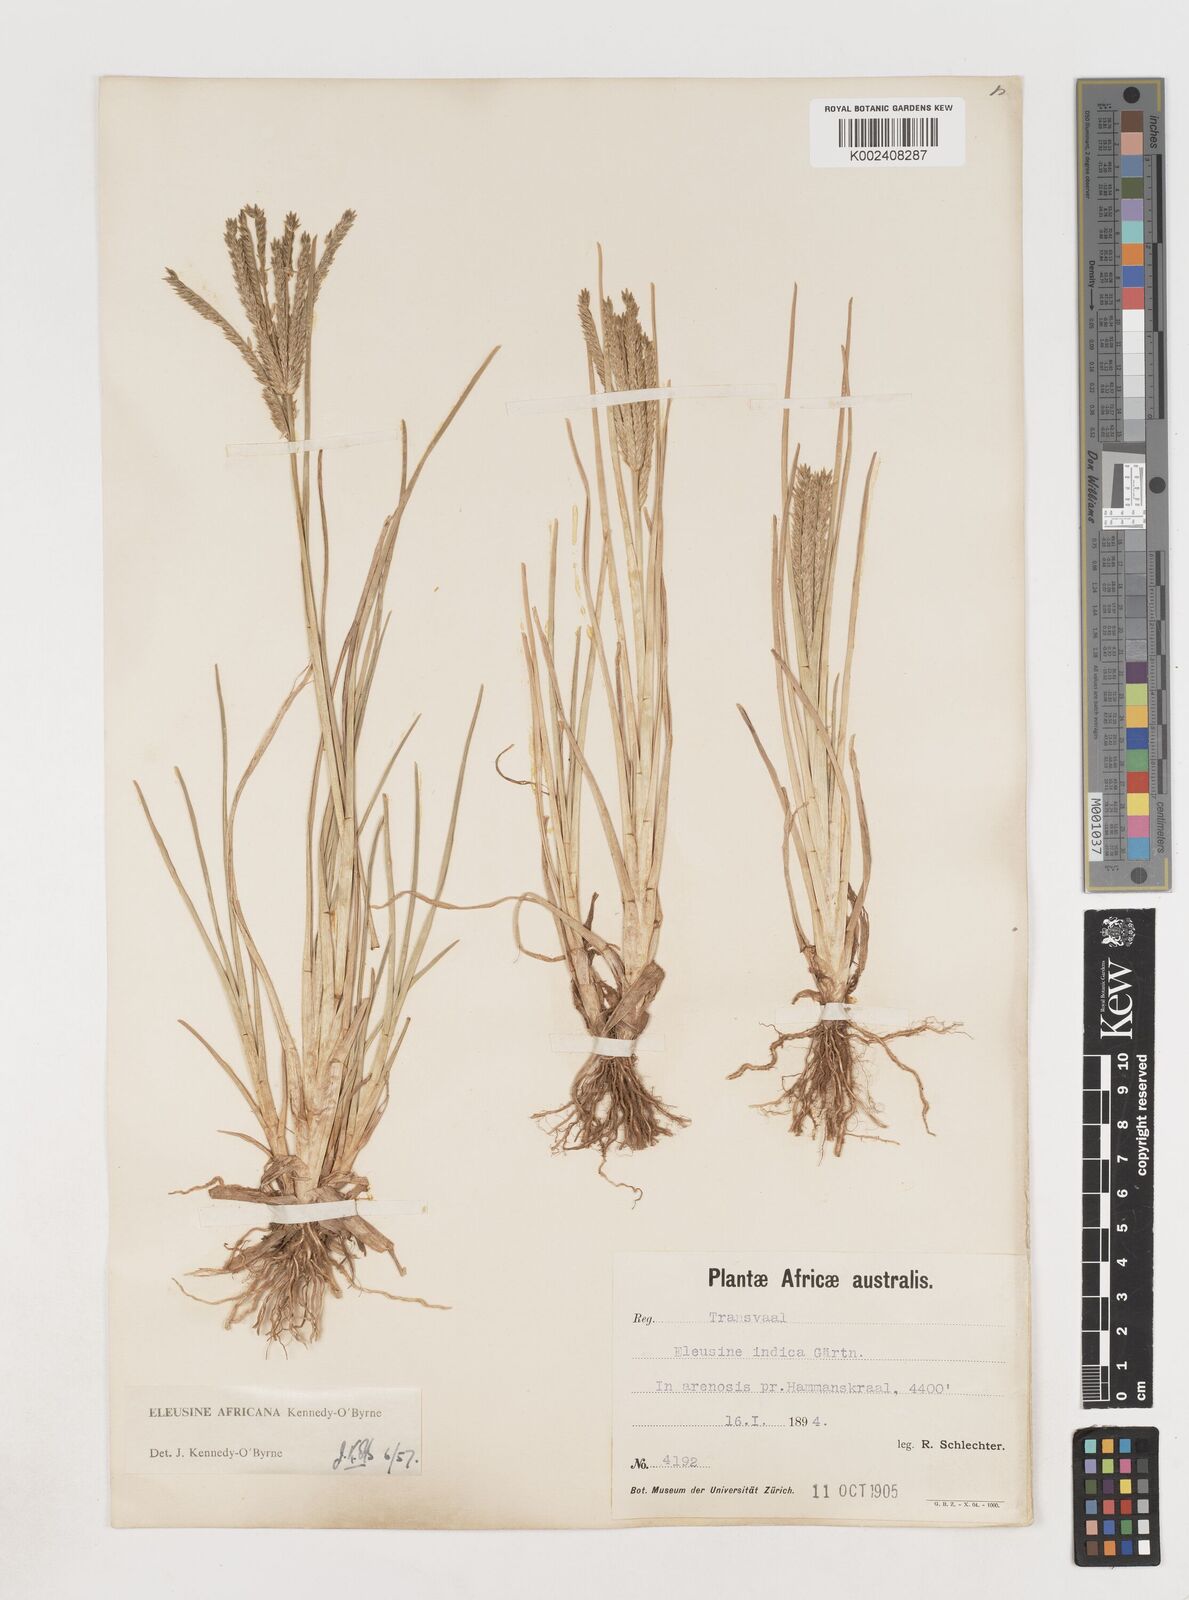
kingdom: Plantae
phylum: Tracheophyta
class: Liliopsida
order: Poales
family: Poaceae
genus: Eleusine
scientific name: Eleusine africana
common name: Wild african finger millet
